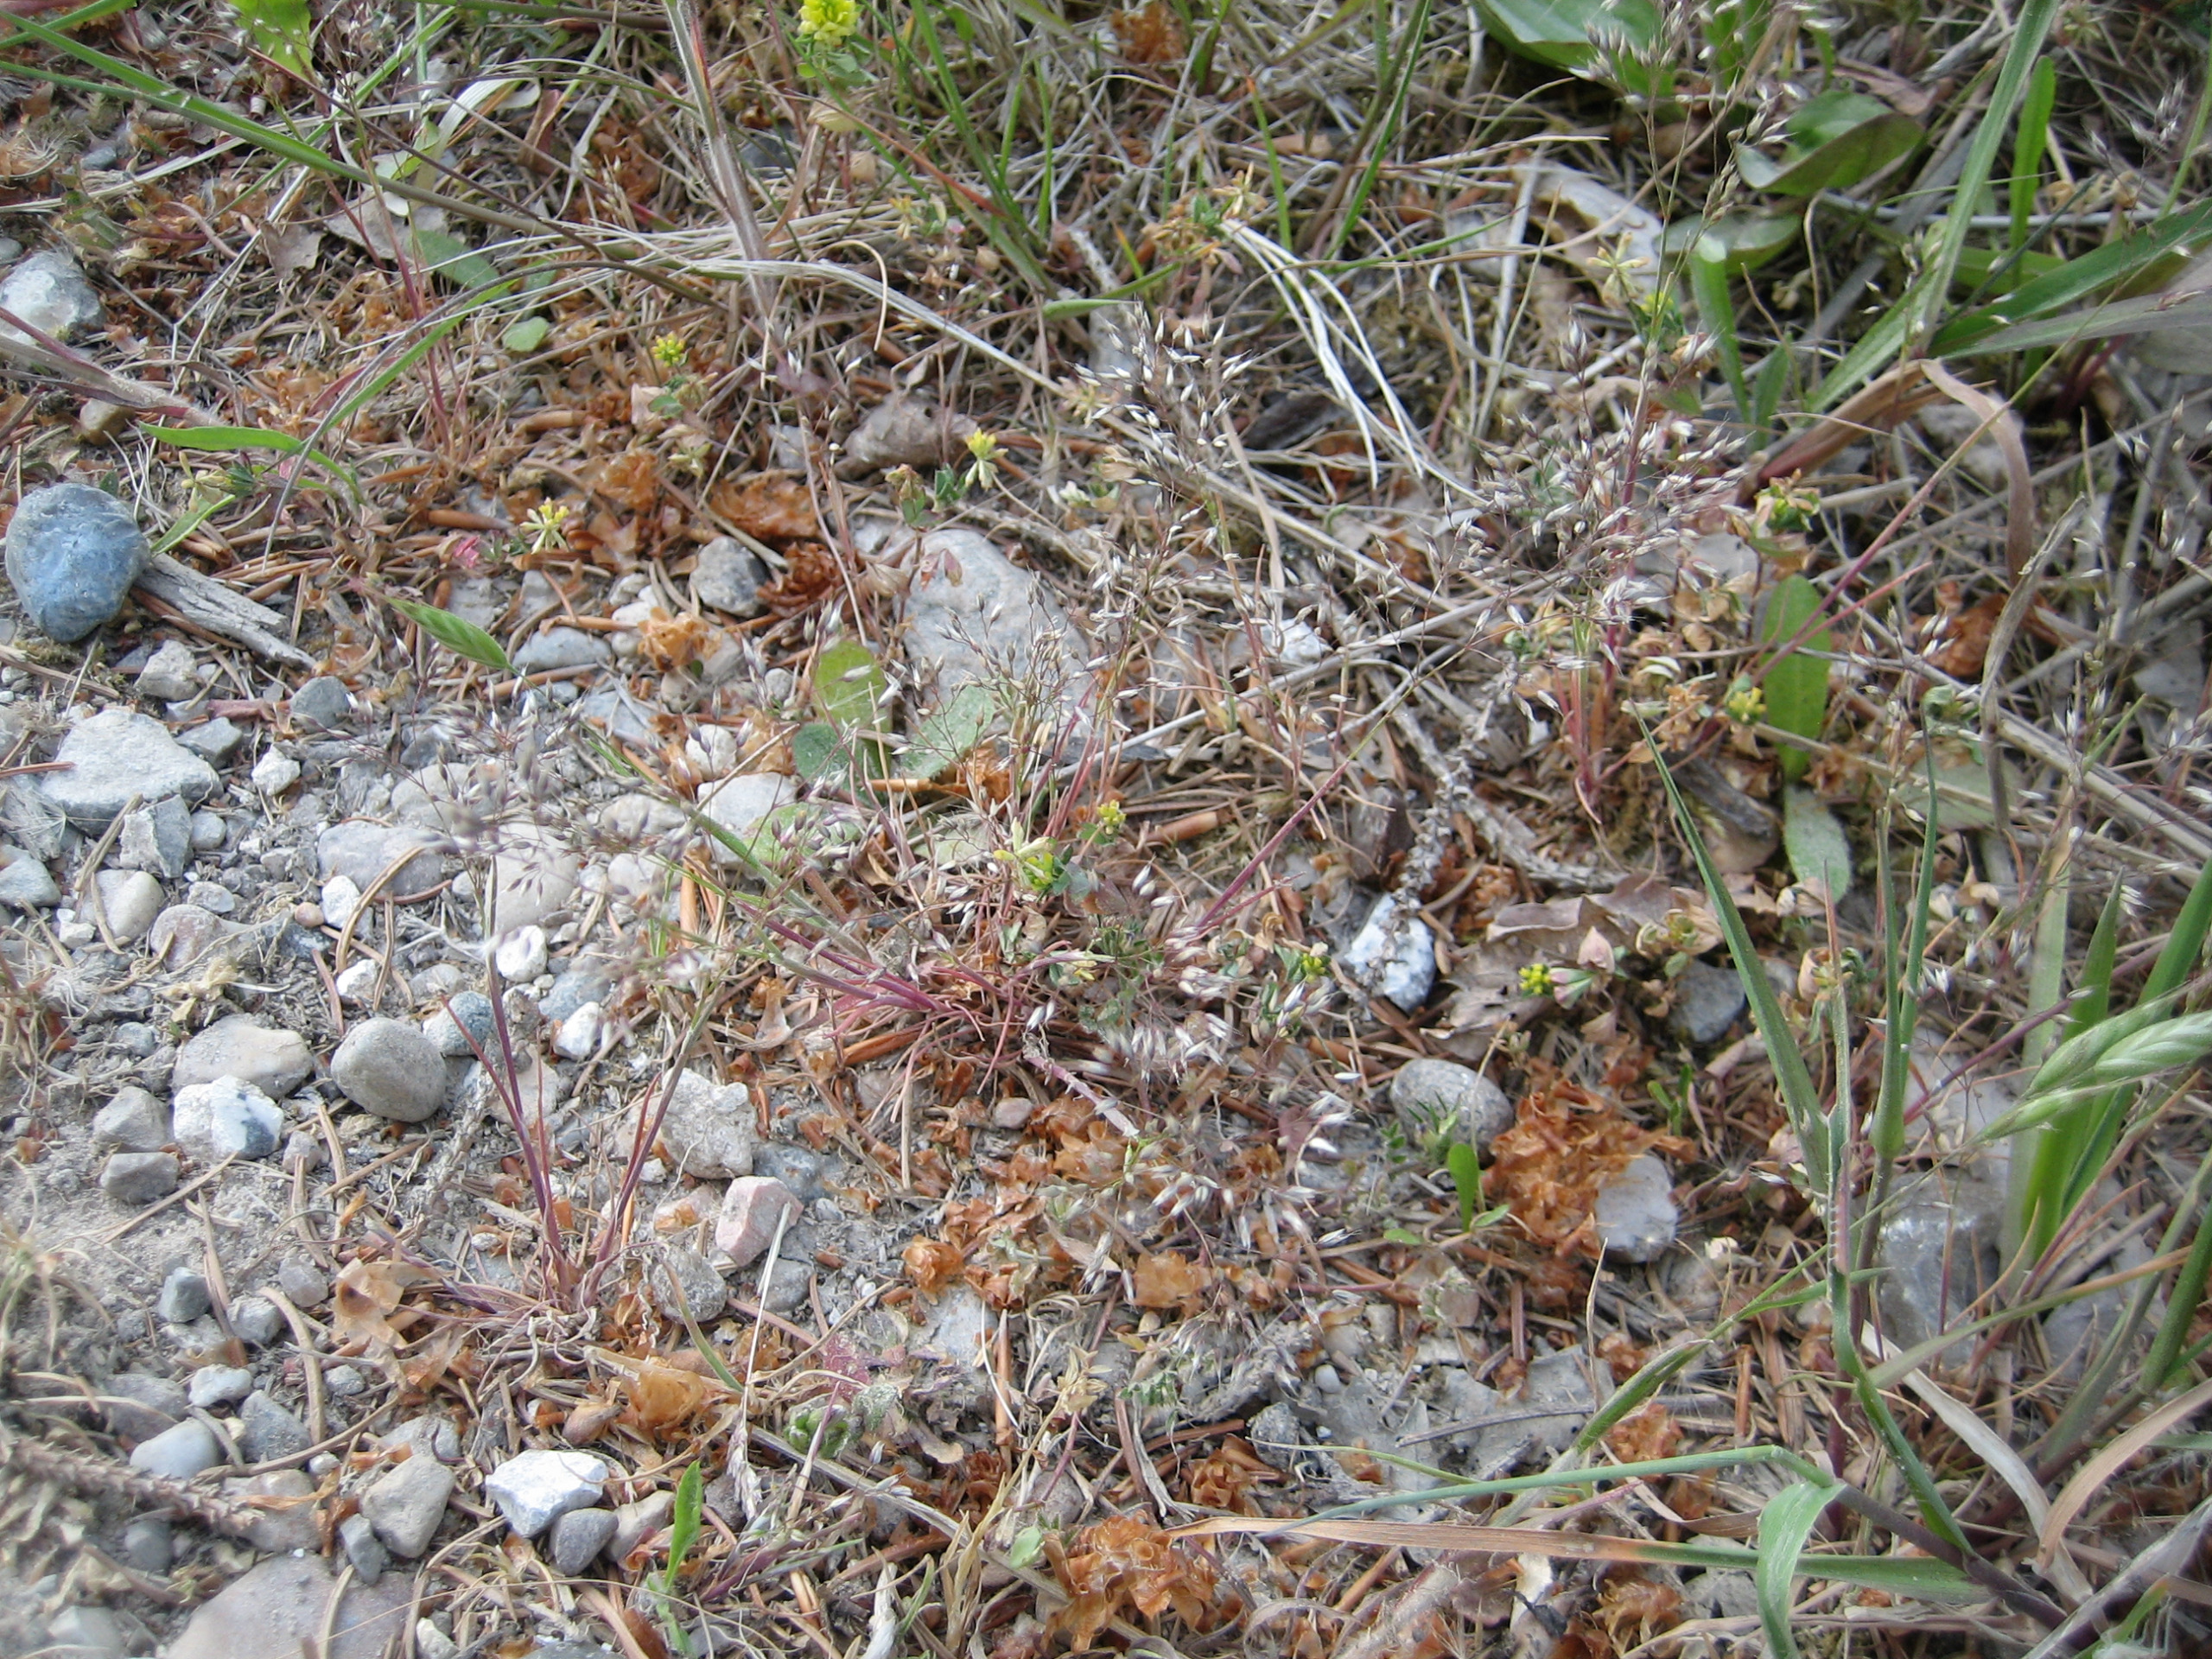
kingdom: Plantae
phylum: Tracheophyta
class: Liliopsida
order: Poales
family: Poaceae
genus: Aira
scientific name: Aira caryophyllea
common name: Udspærret dværgbunke
